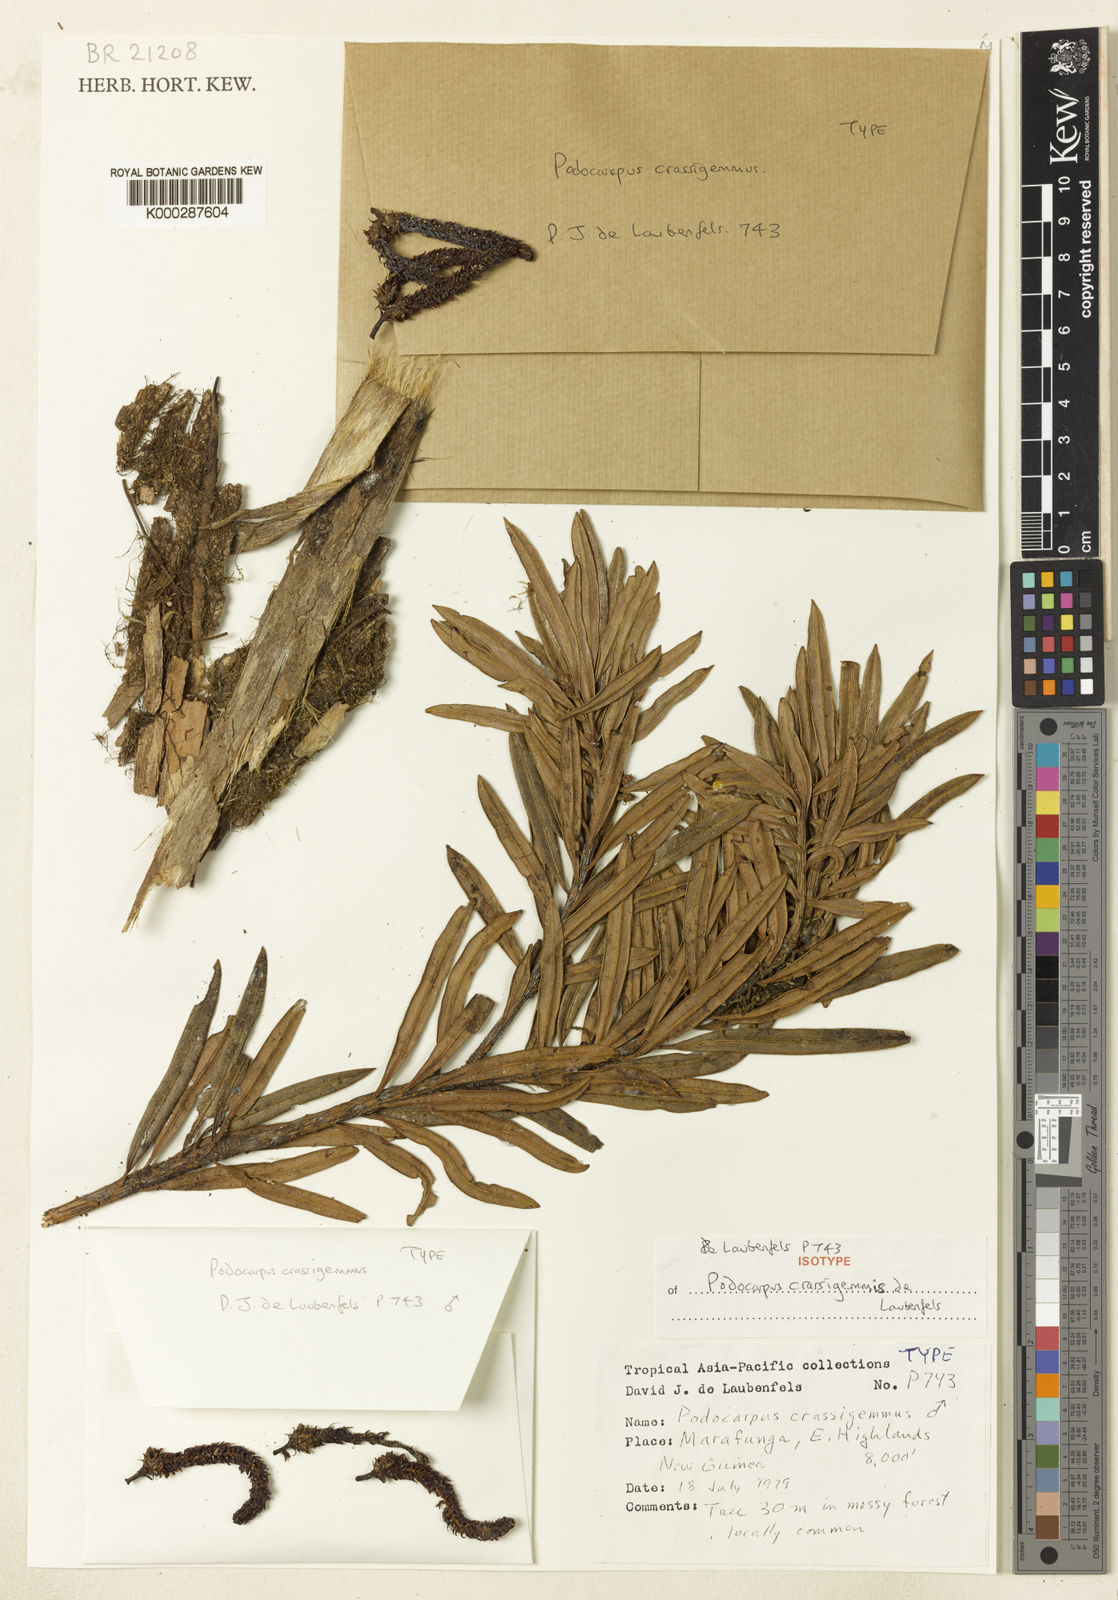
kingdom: Plantae
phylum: Tracheophyta
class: Pinopsida
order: Pinales
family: Podocarpaceae
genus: Podocarpus
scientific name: Podocarpus archboldii
